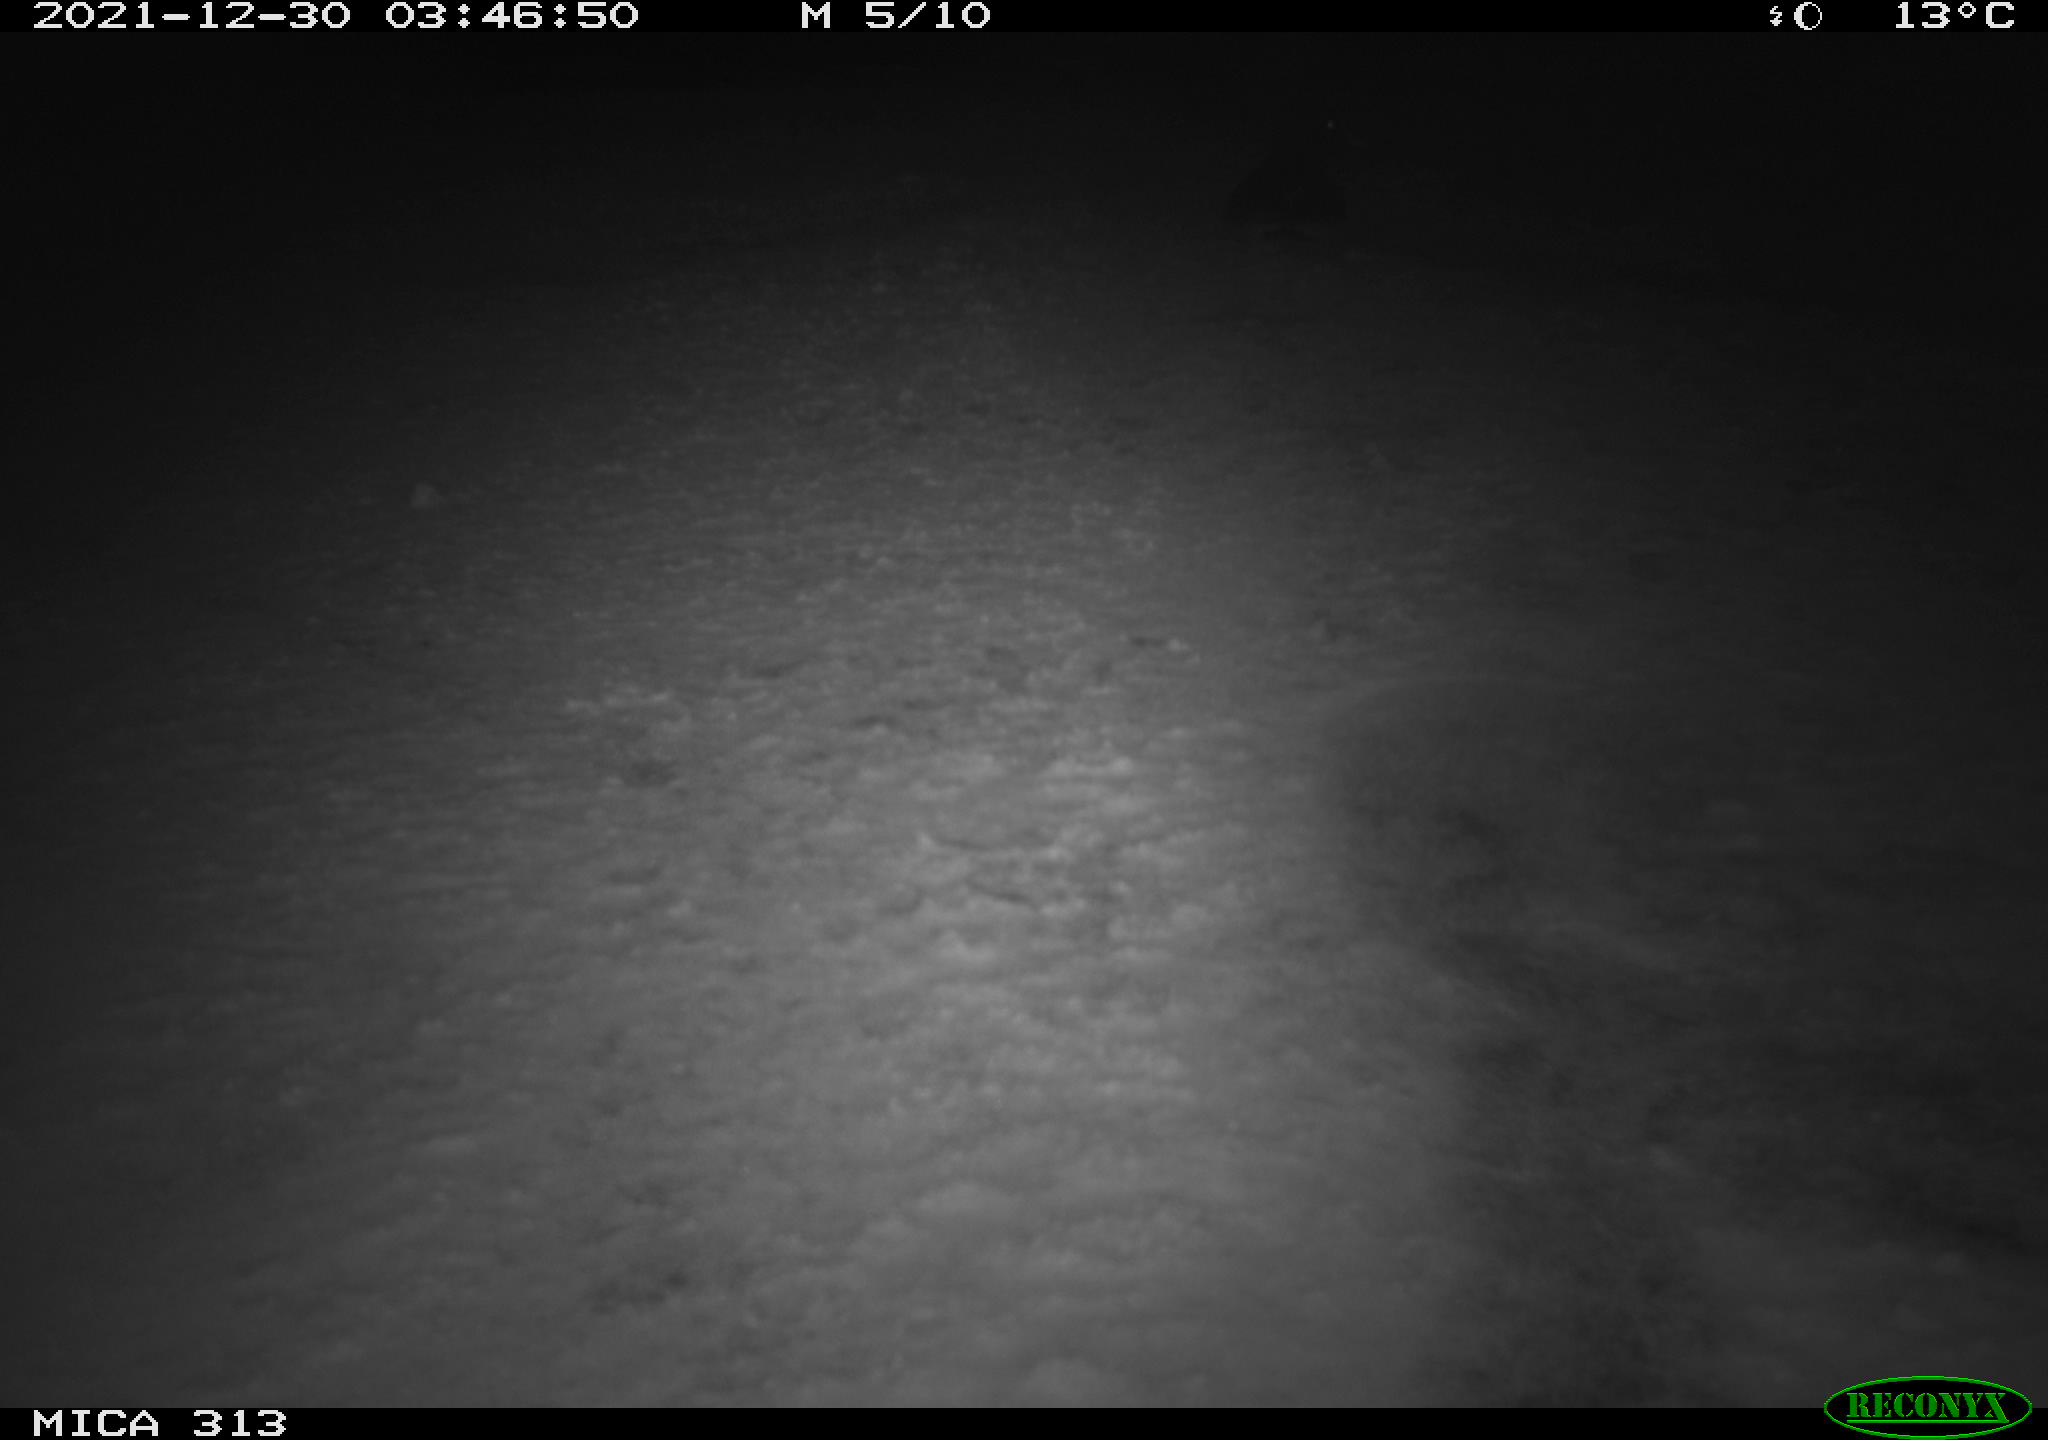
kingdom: Animalia
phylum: Chordata
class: Aves
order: Gruiformes
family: Rallidae
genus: Gallinula
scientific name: Gallinula chloropus
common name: Common moorhen
